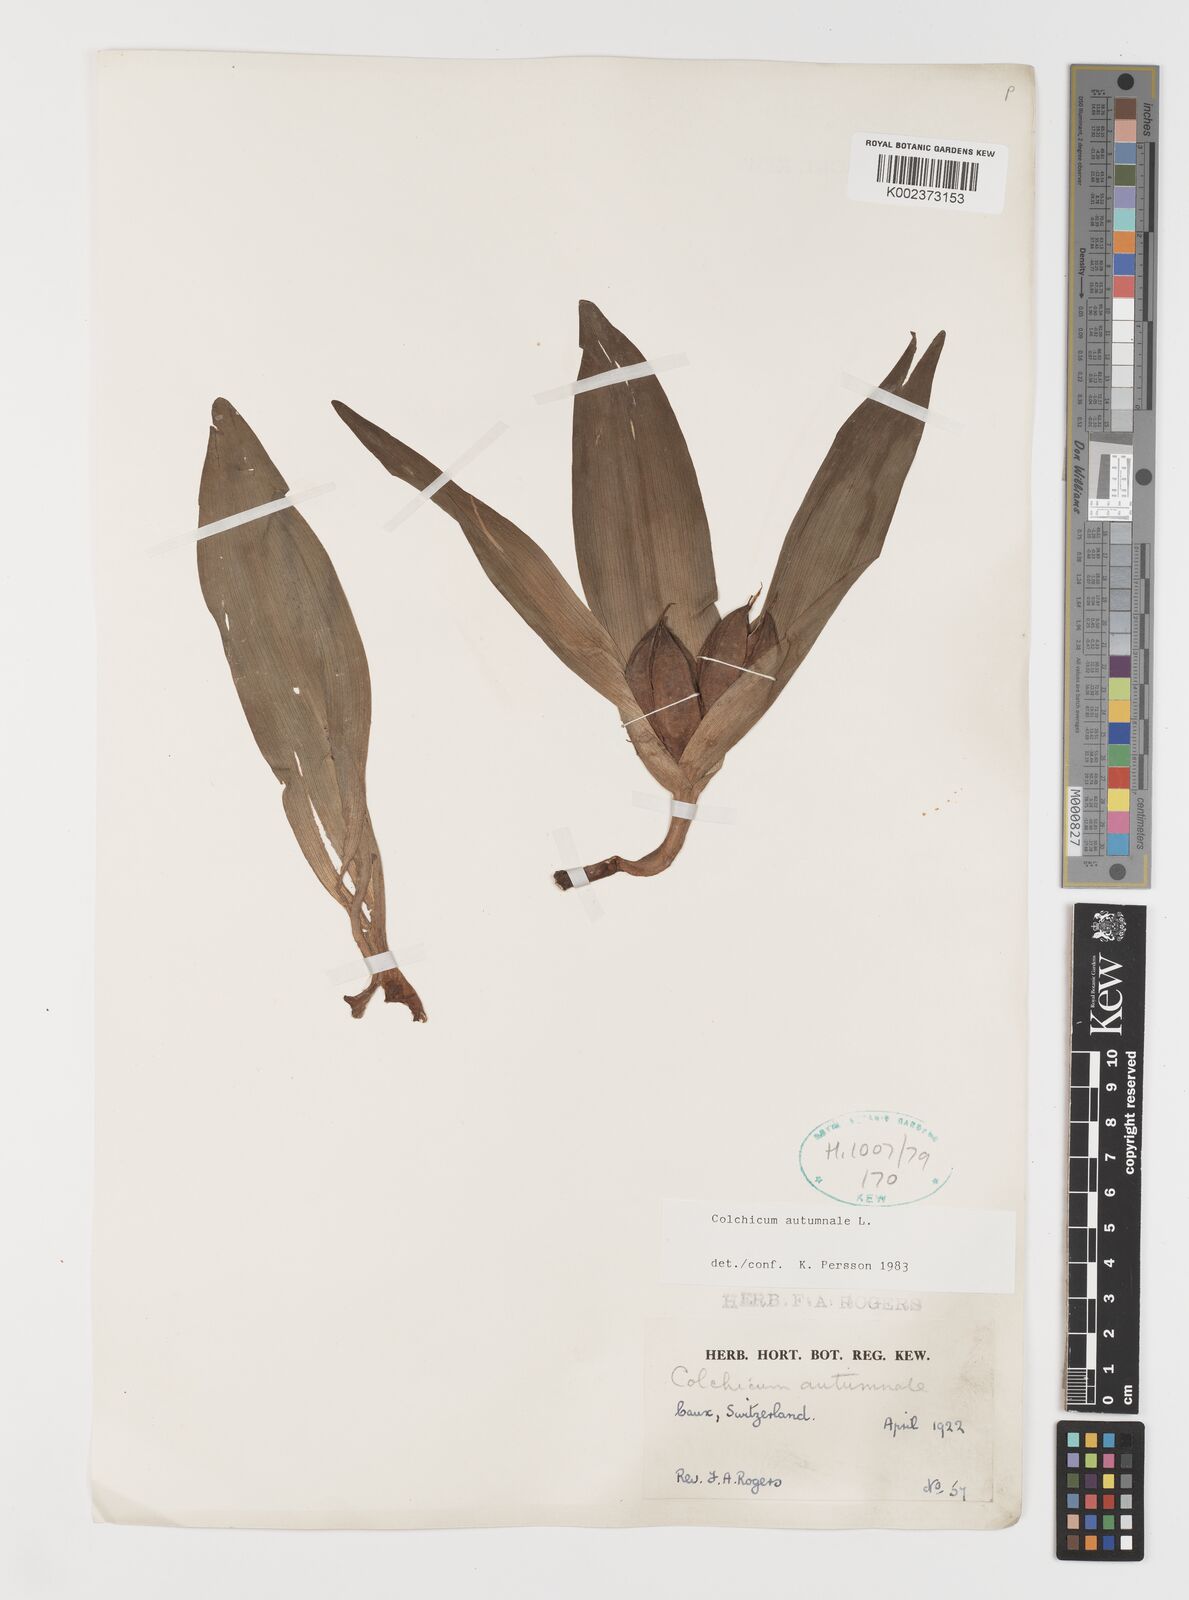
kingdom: Plantae
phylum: Tracheophyta
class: Liliopsida
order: Liliales
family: Colchicaceae
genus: Colchicum
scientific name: Colchicum autumnale
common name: Autumn crocus
